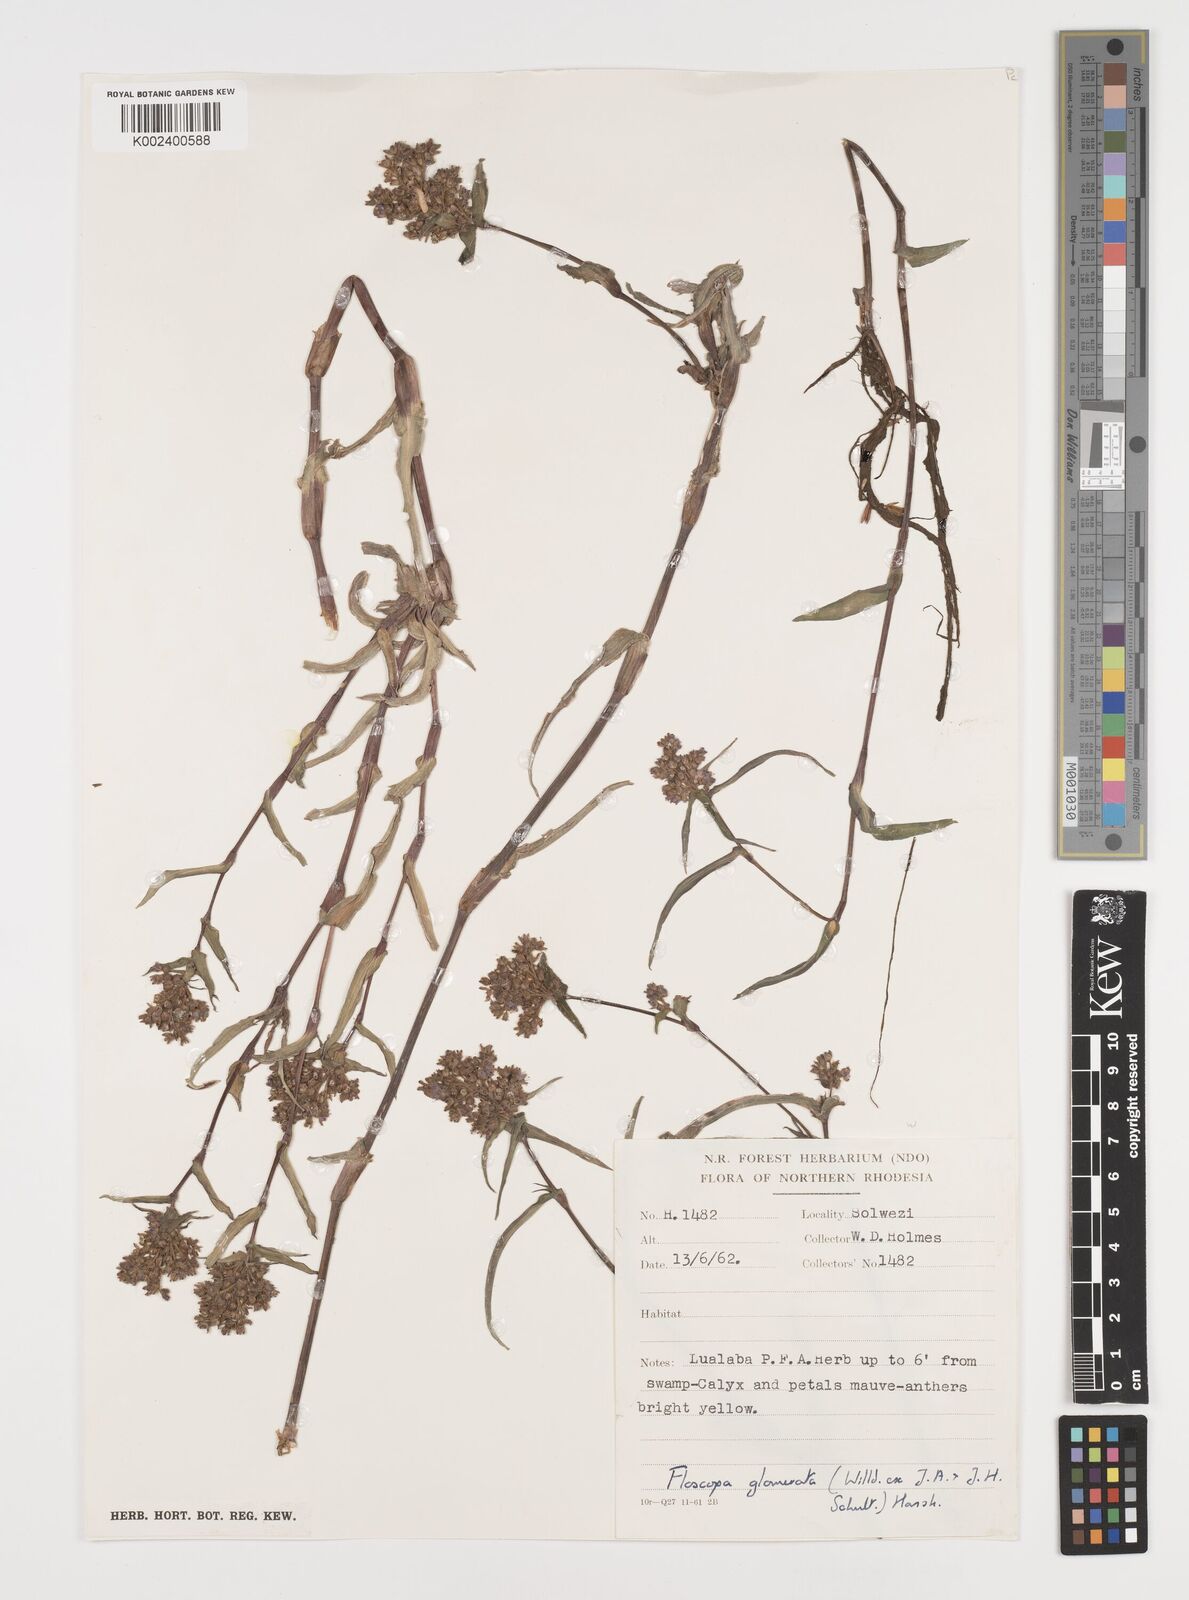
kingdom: Plantae
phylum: Tracheophyta
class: Liliopsida
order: Commelinales
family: Commelinaceae
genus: Floscopa
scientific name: Floscopa glomerata
